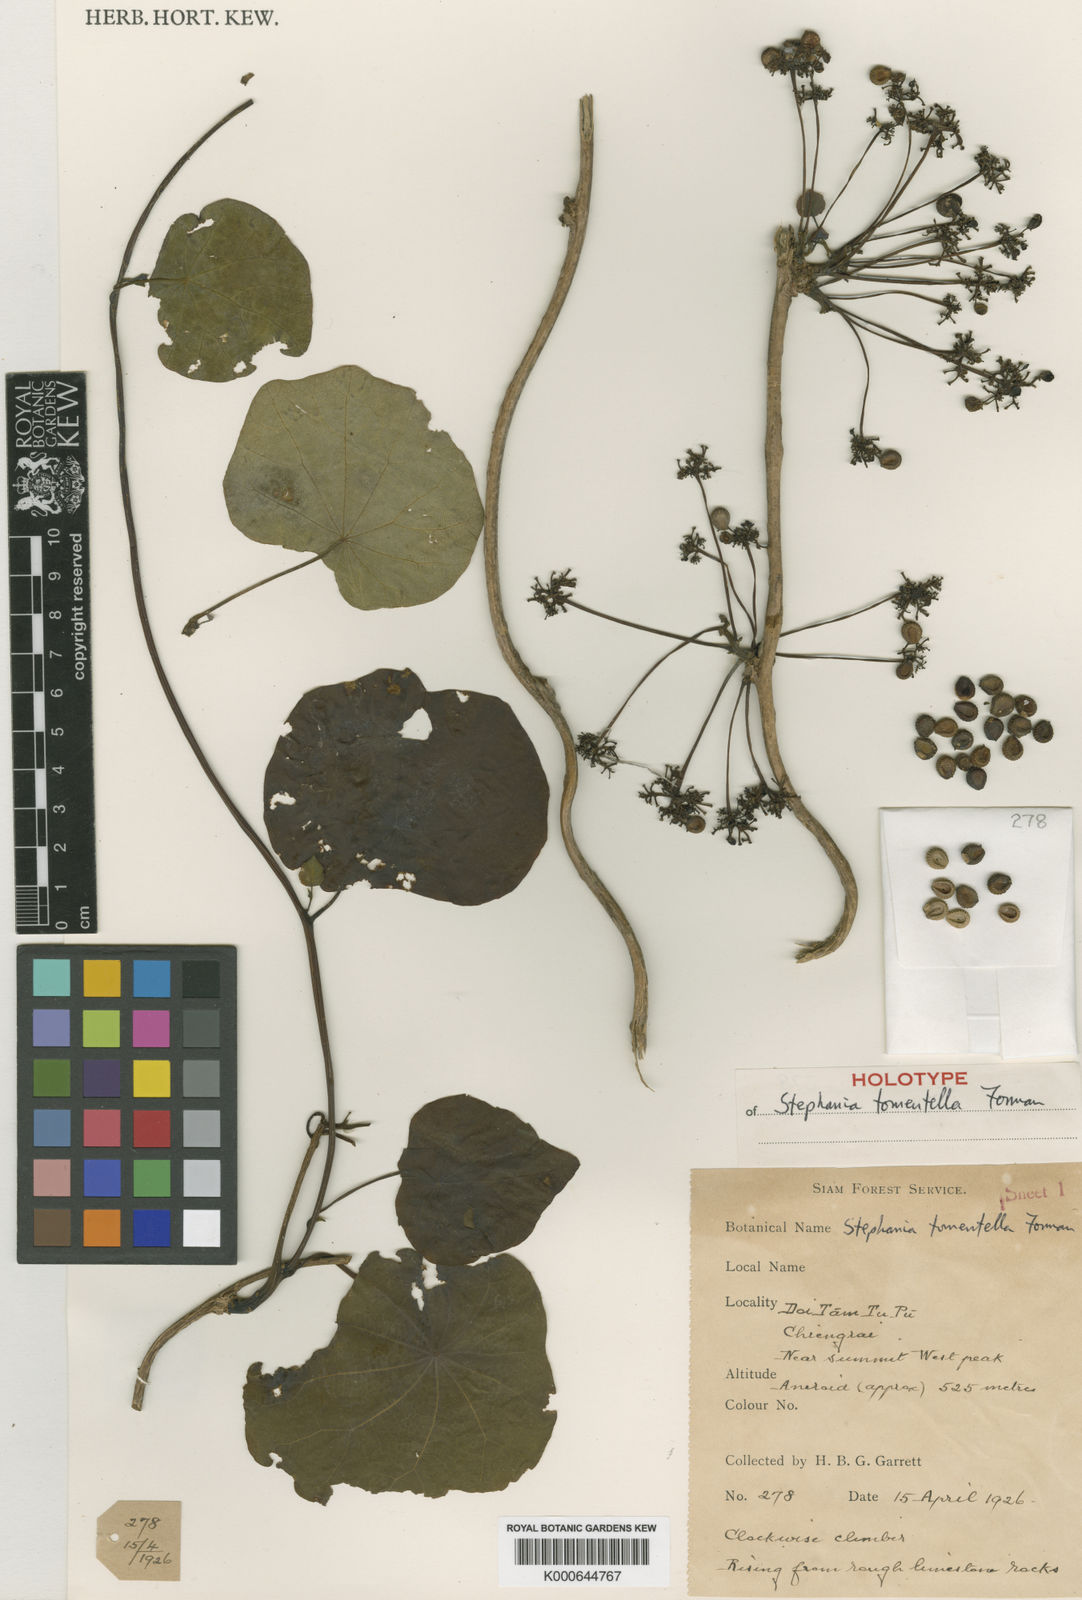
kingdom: Plantae
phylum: Tracheophyta
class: Magnoliopsida
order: Ranunculales
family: Menispermaceae
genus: Stephania
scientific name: Stephania tomentella
